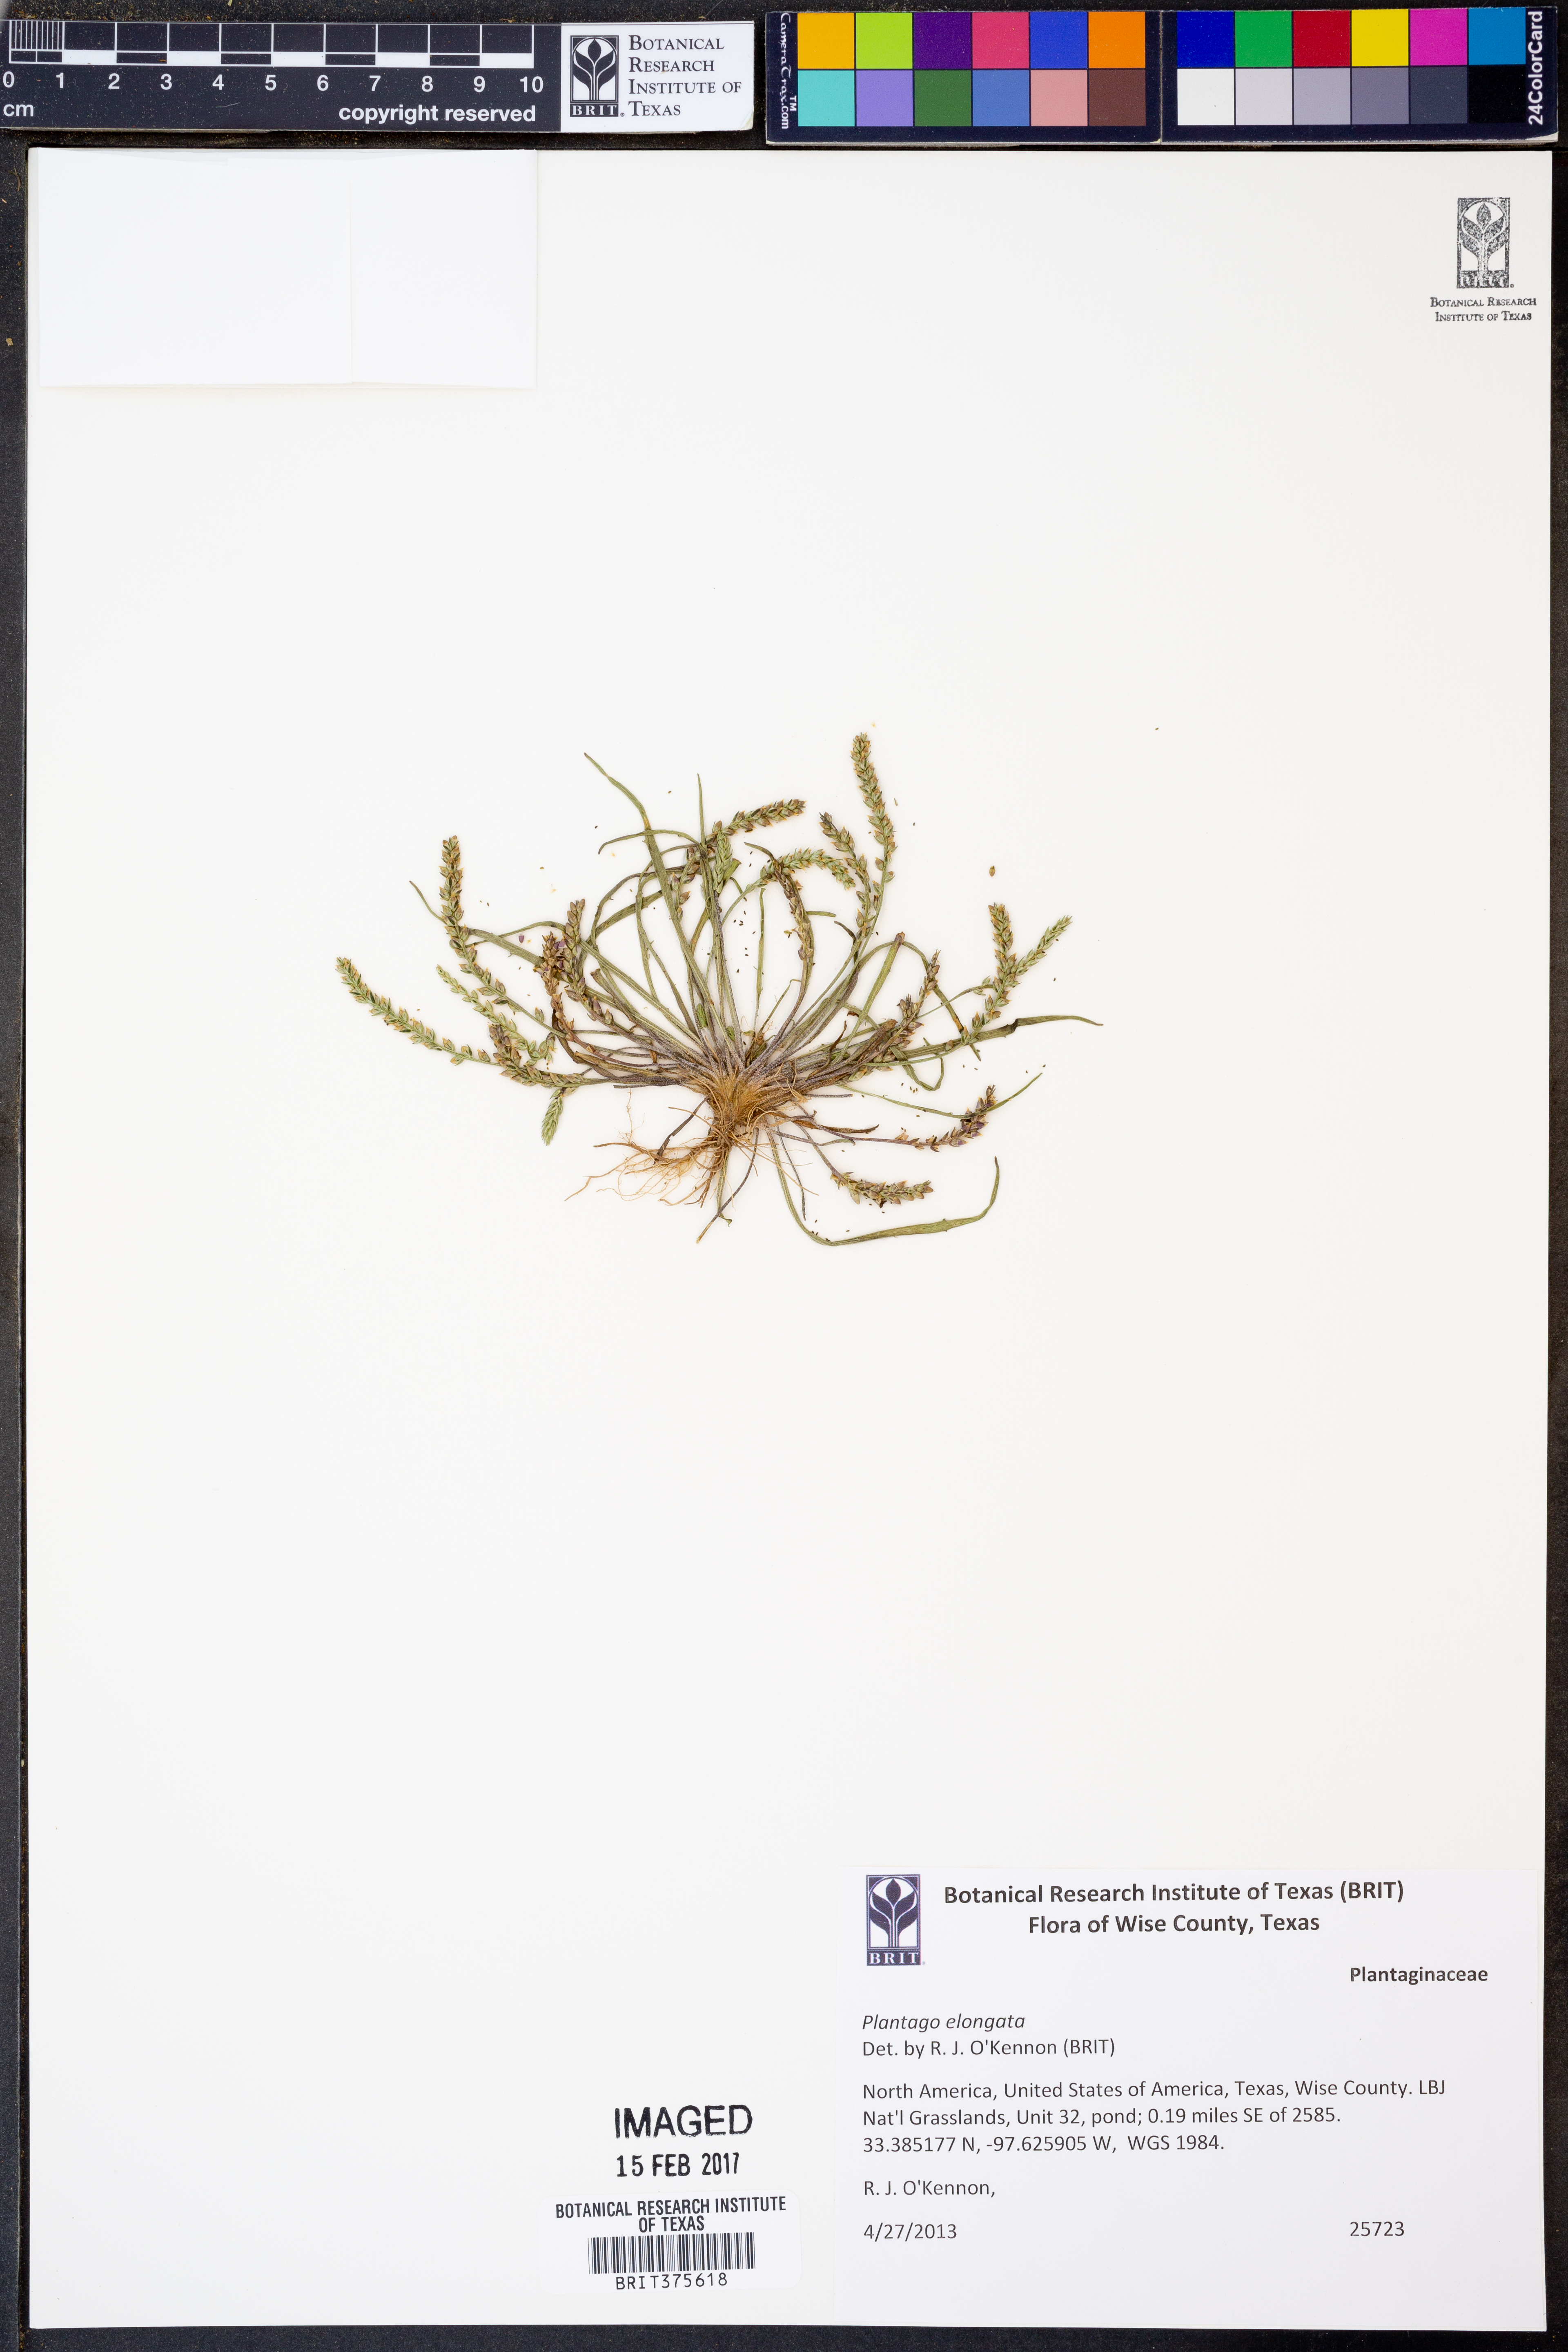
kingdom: Plantae
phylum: Tracheophyta
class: Magnoliopsida
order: Lamiales
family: Plantaginaceae
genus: Plantago
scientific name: Plantago elongata
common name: Linear-leaved plantain
